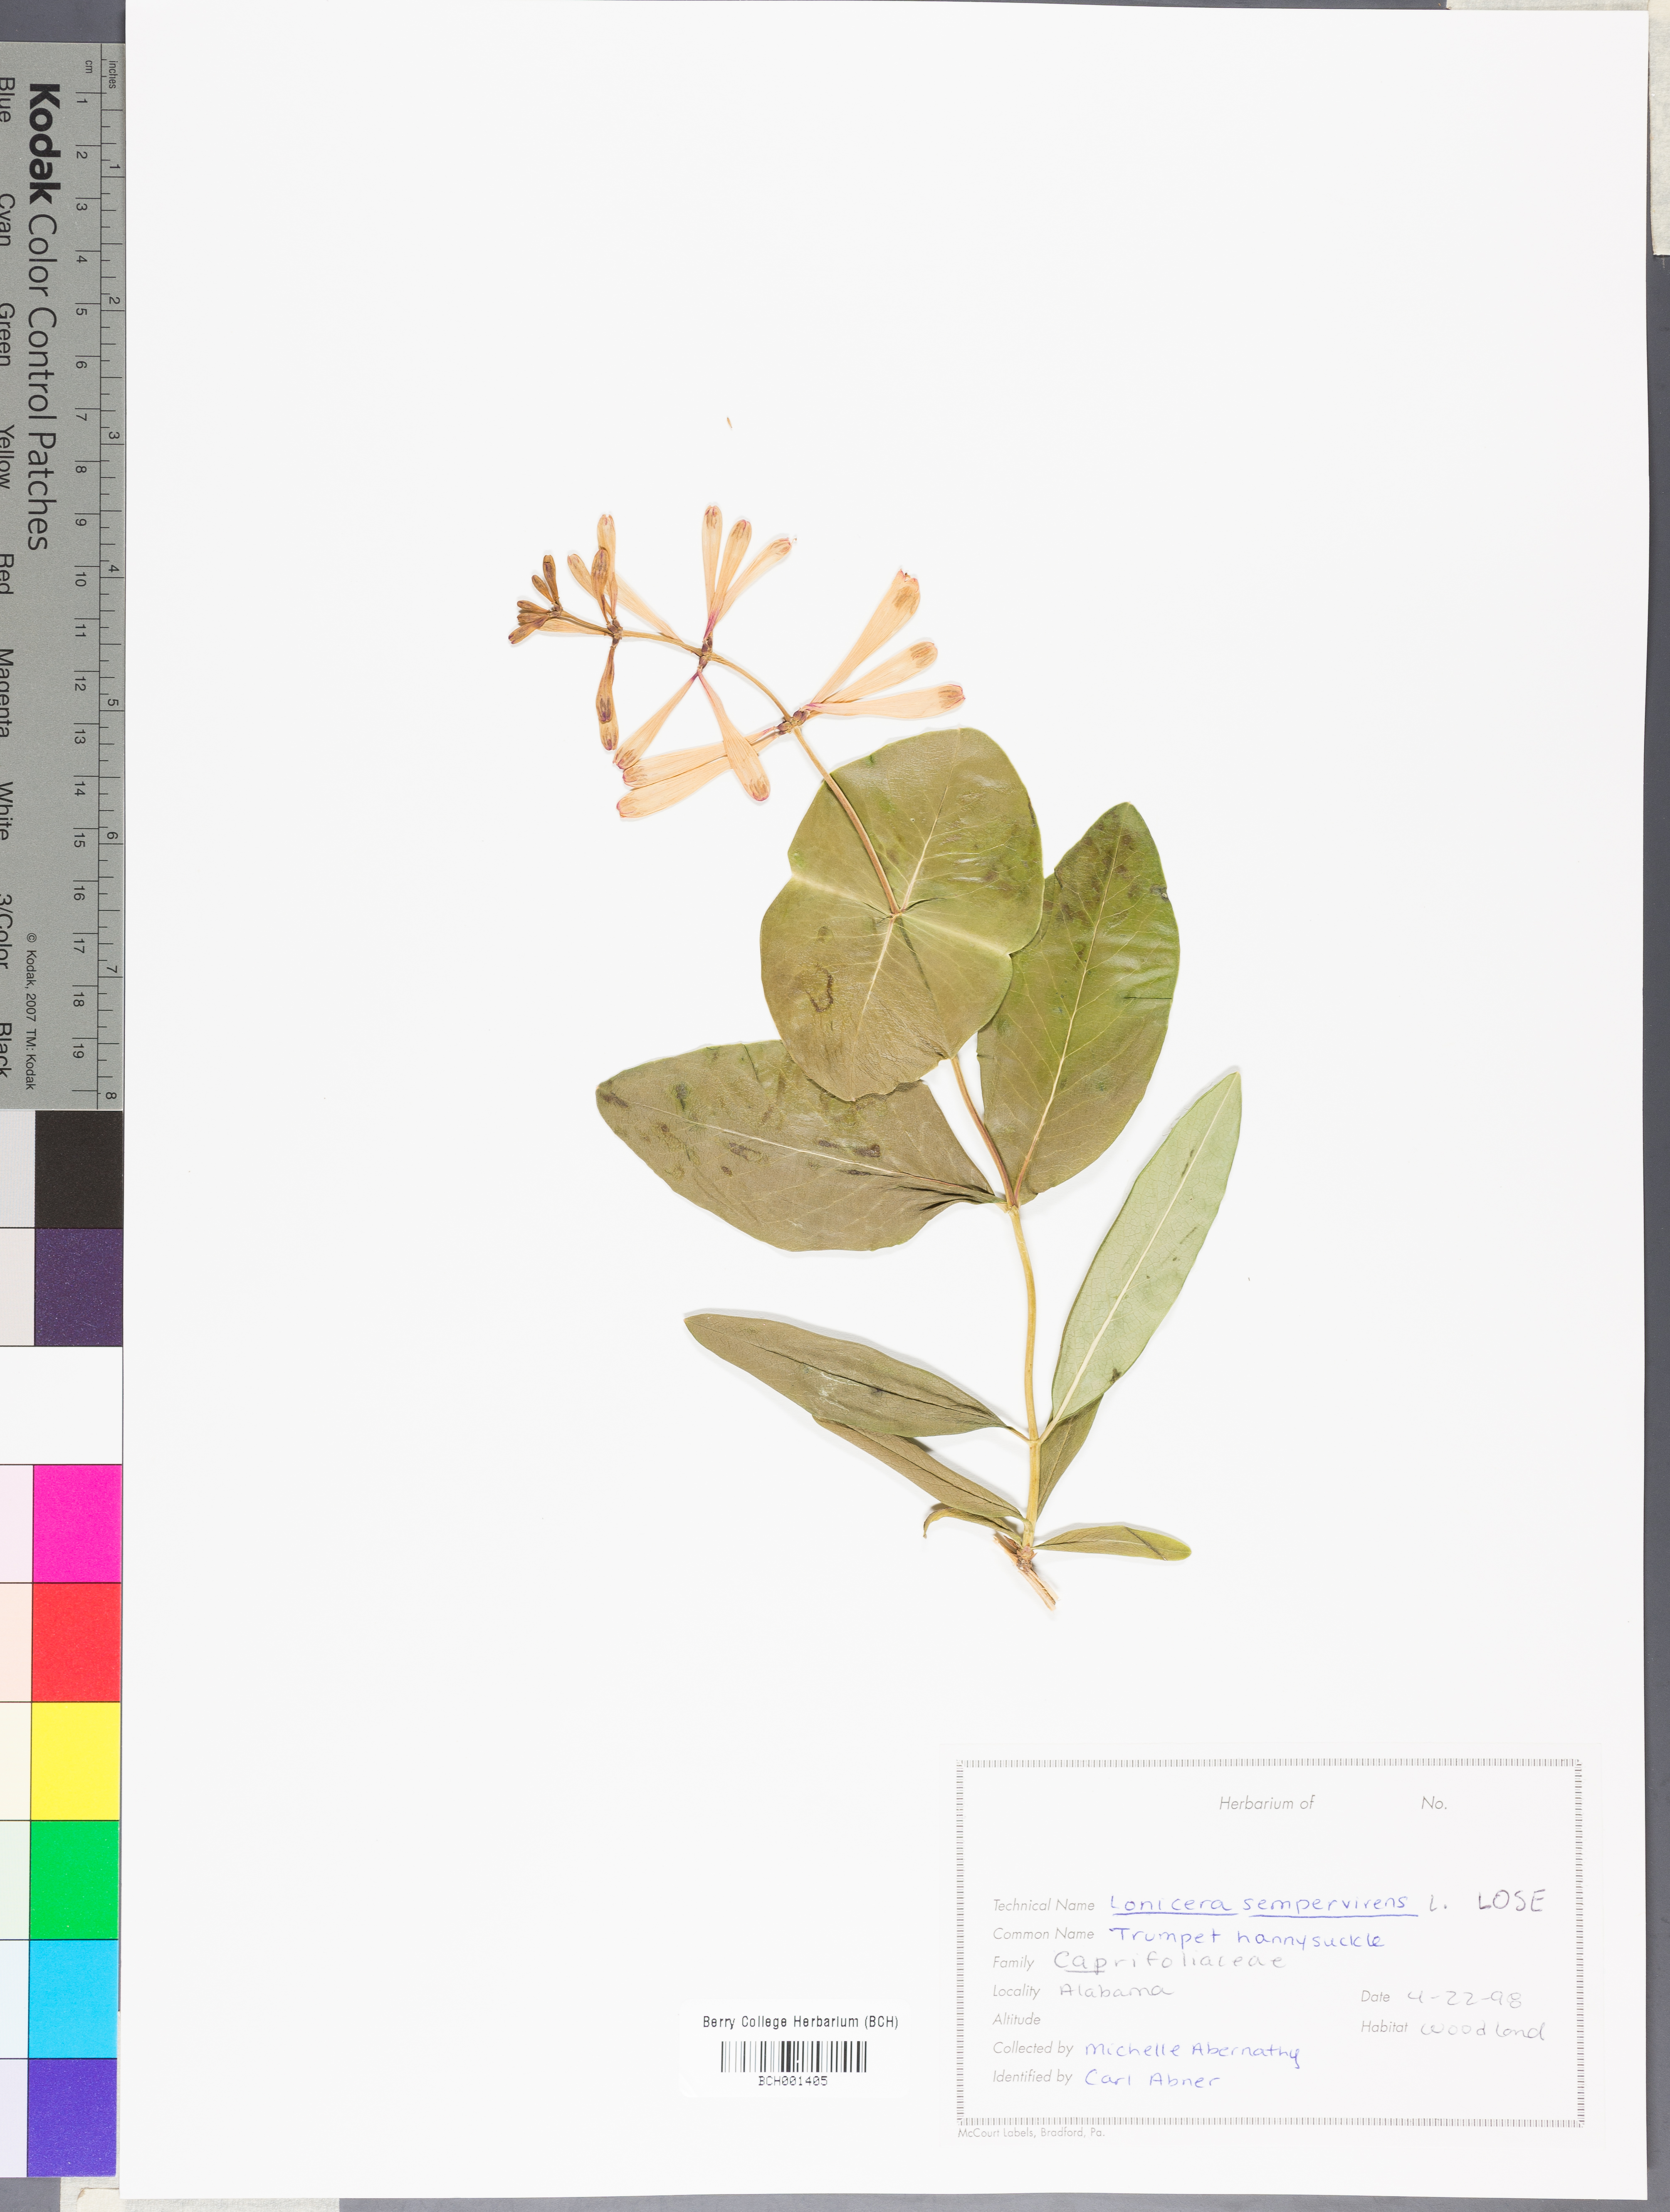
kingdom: Plantae
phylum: Tracheophyta
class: Magnoliopsida
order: Dipsacales
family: Caprifoliaceae
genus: Lonicera
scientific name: Lonicera sempervirens
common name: Coral honeysuckle
